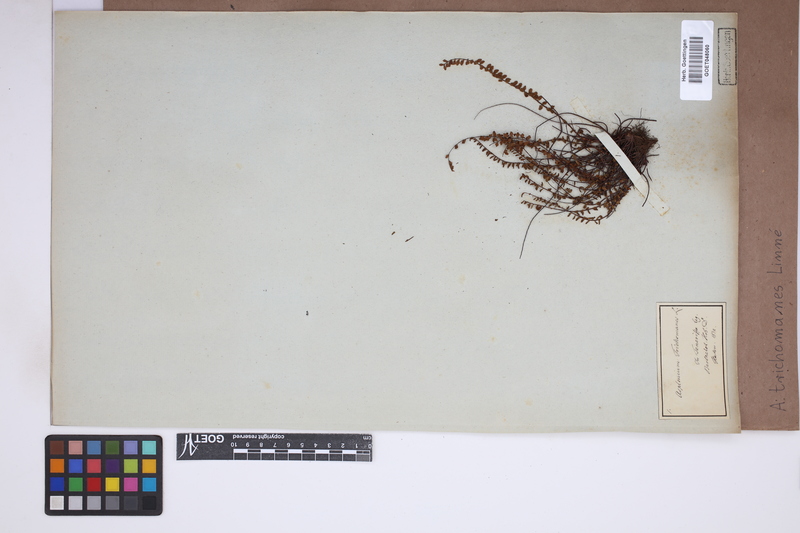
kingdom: Plantae
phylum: Tracheophyta
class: Polypodiopsida
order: Polypodiales
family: Aspleniaceae
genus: Asplenium
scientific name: Asplenium trichomanes
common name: Maidenhair spleenwort
